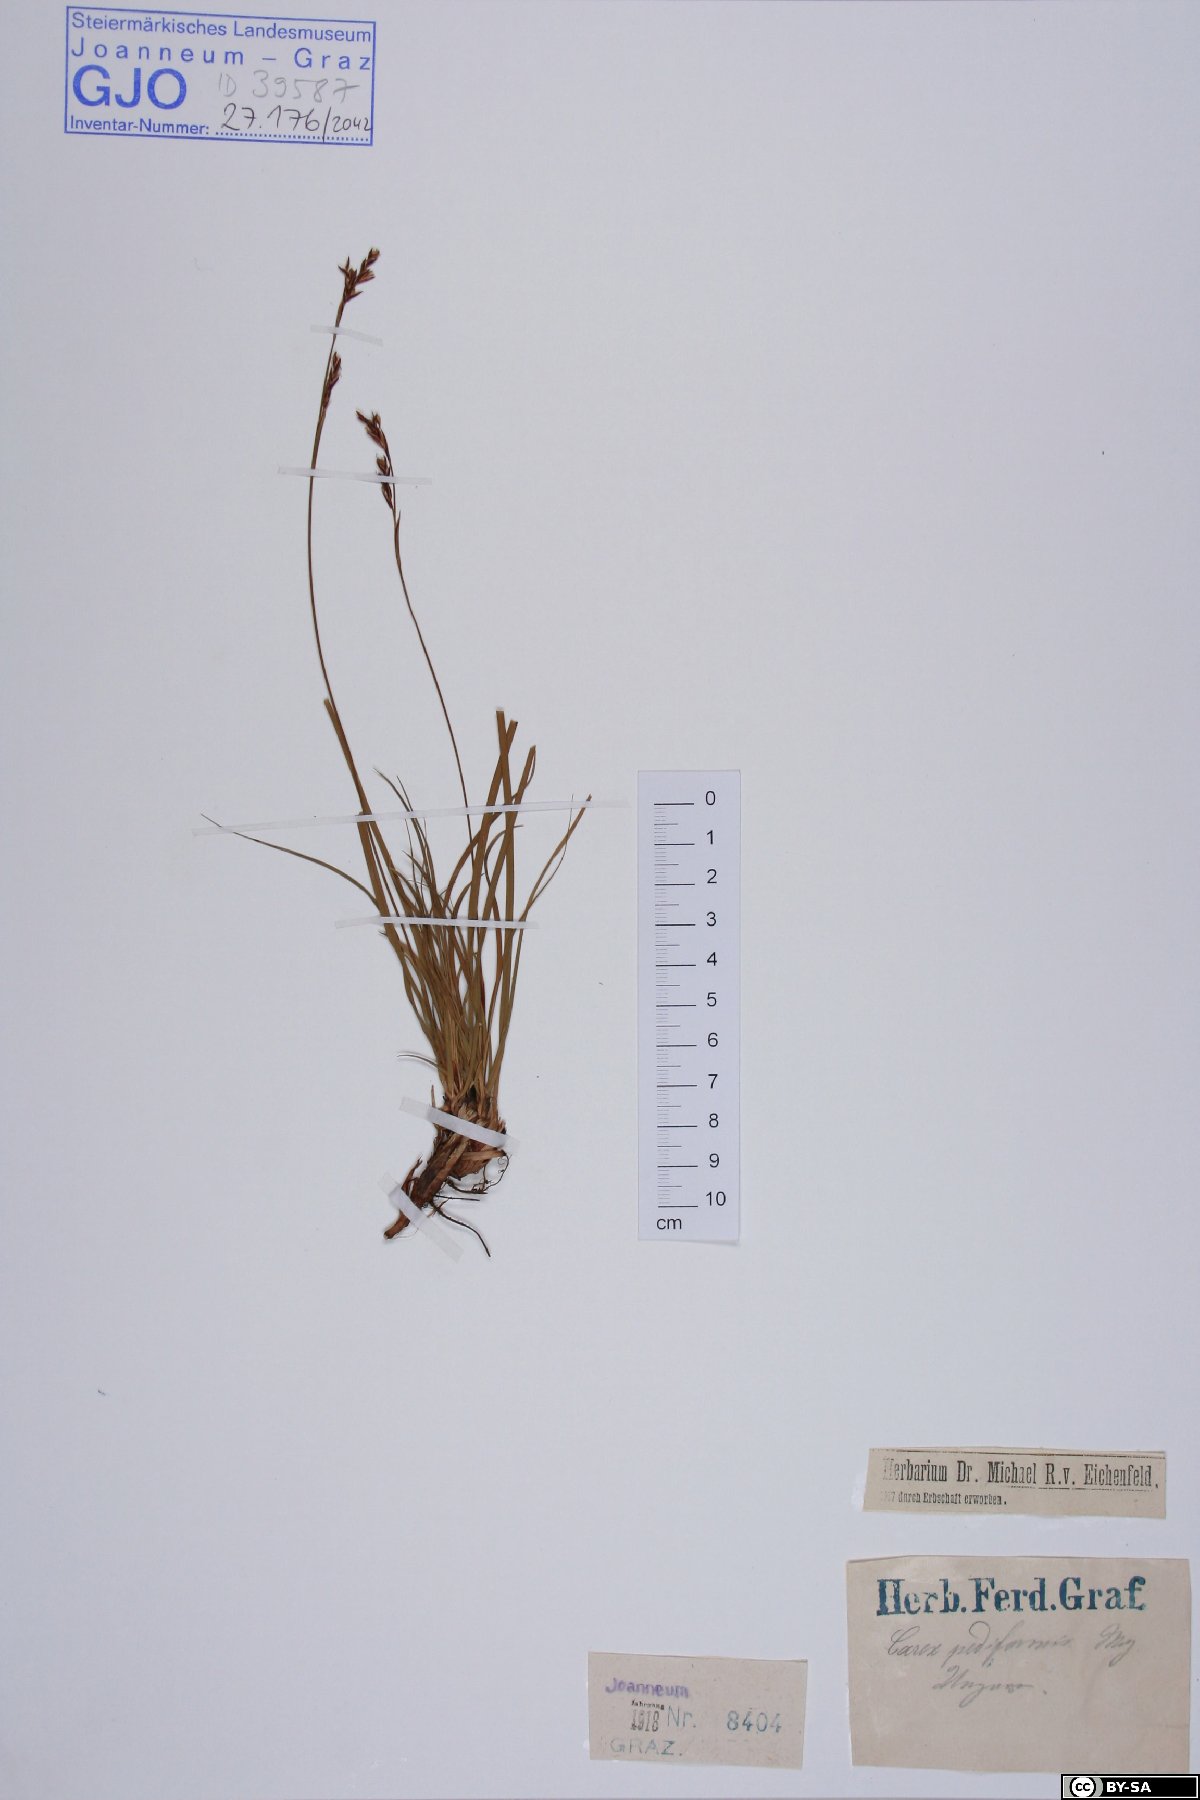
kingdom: Plantae
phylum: Tracheophyta
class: Liliopsida
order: Poales
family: Cyperaceae
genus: Carex
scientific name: Carex pediformis
